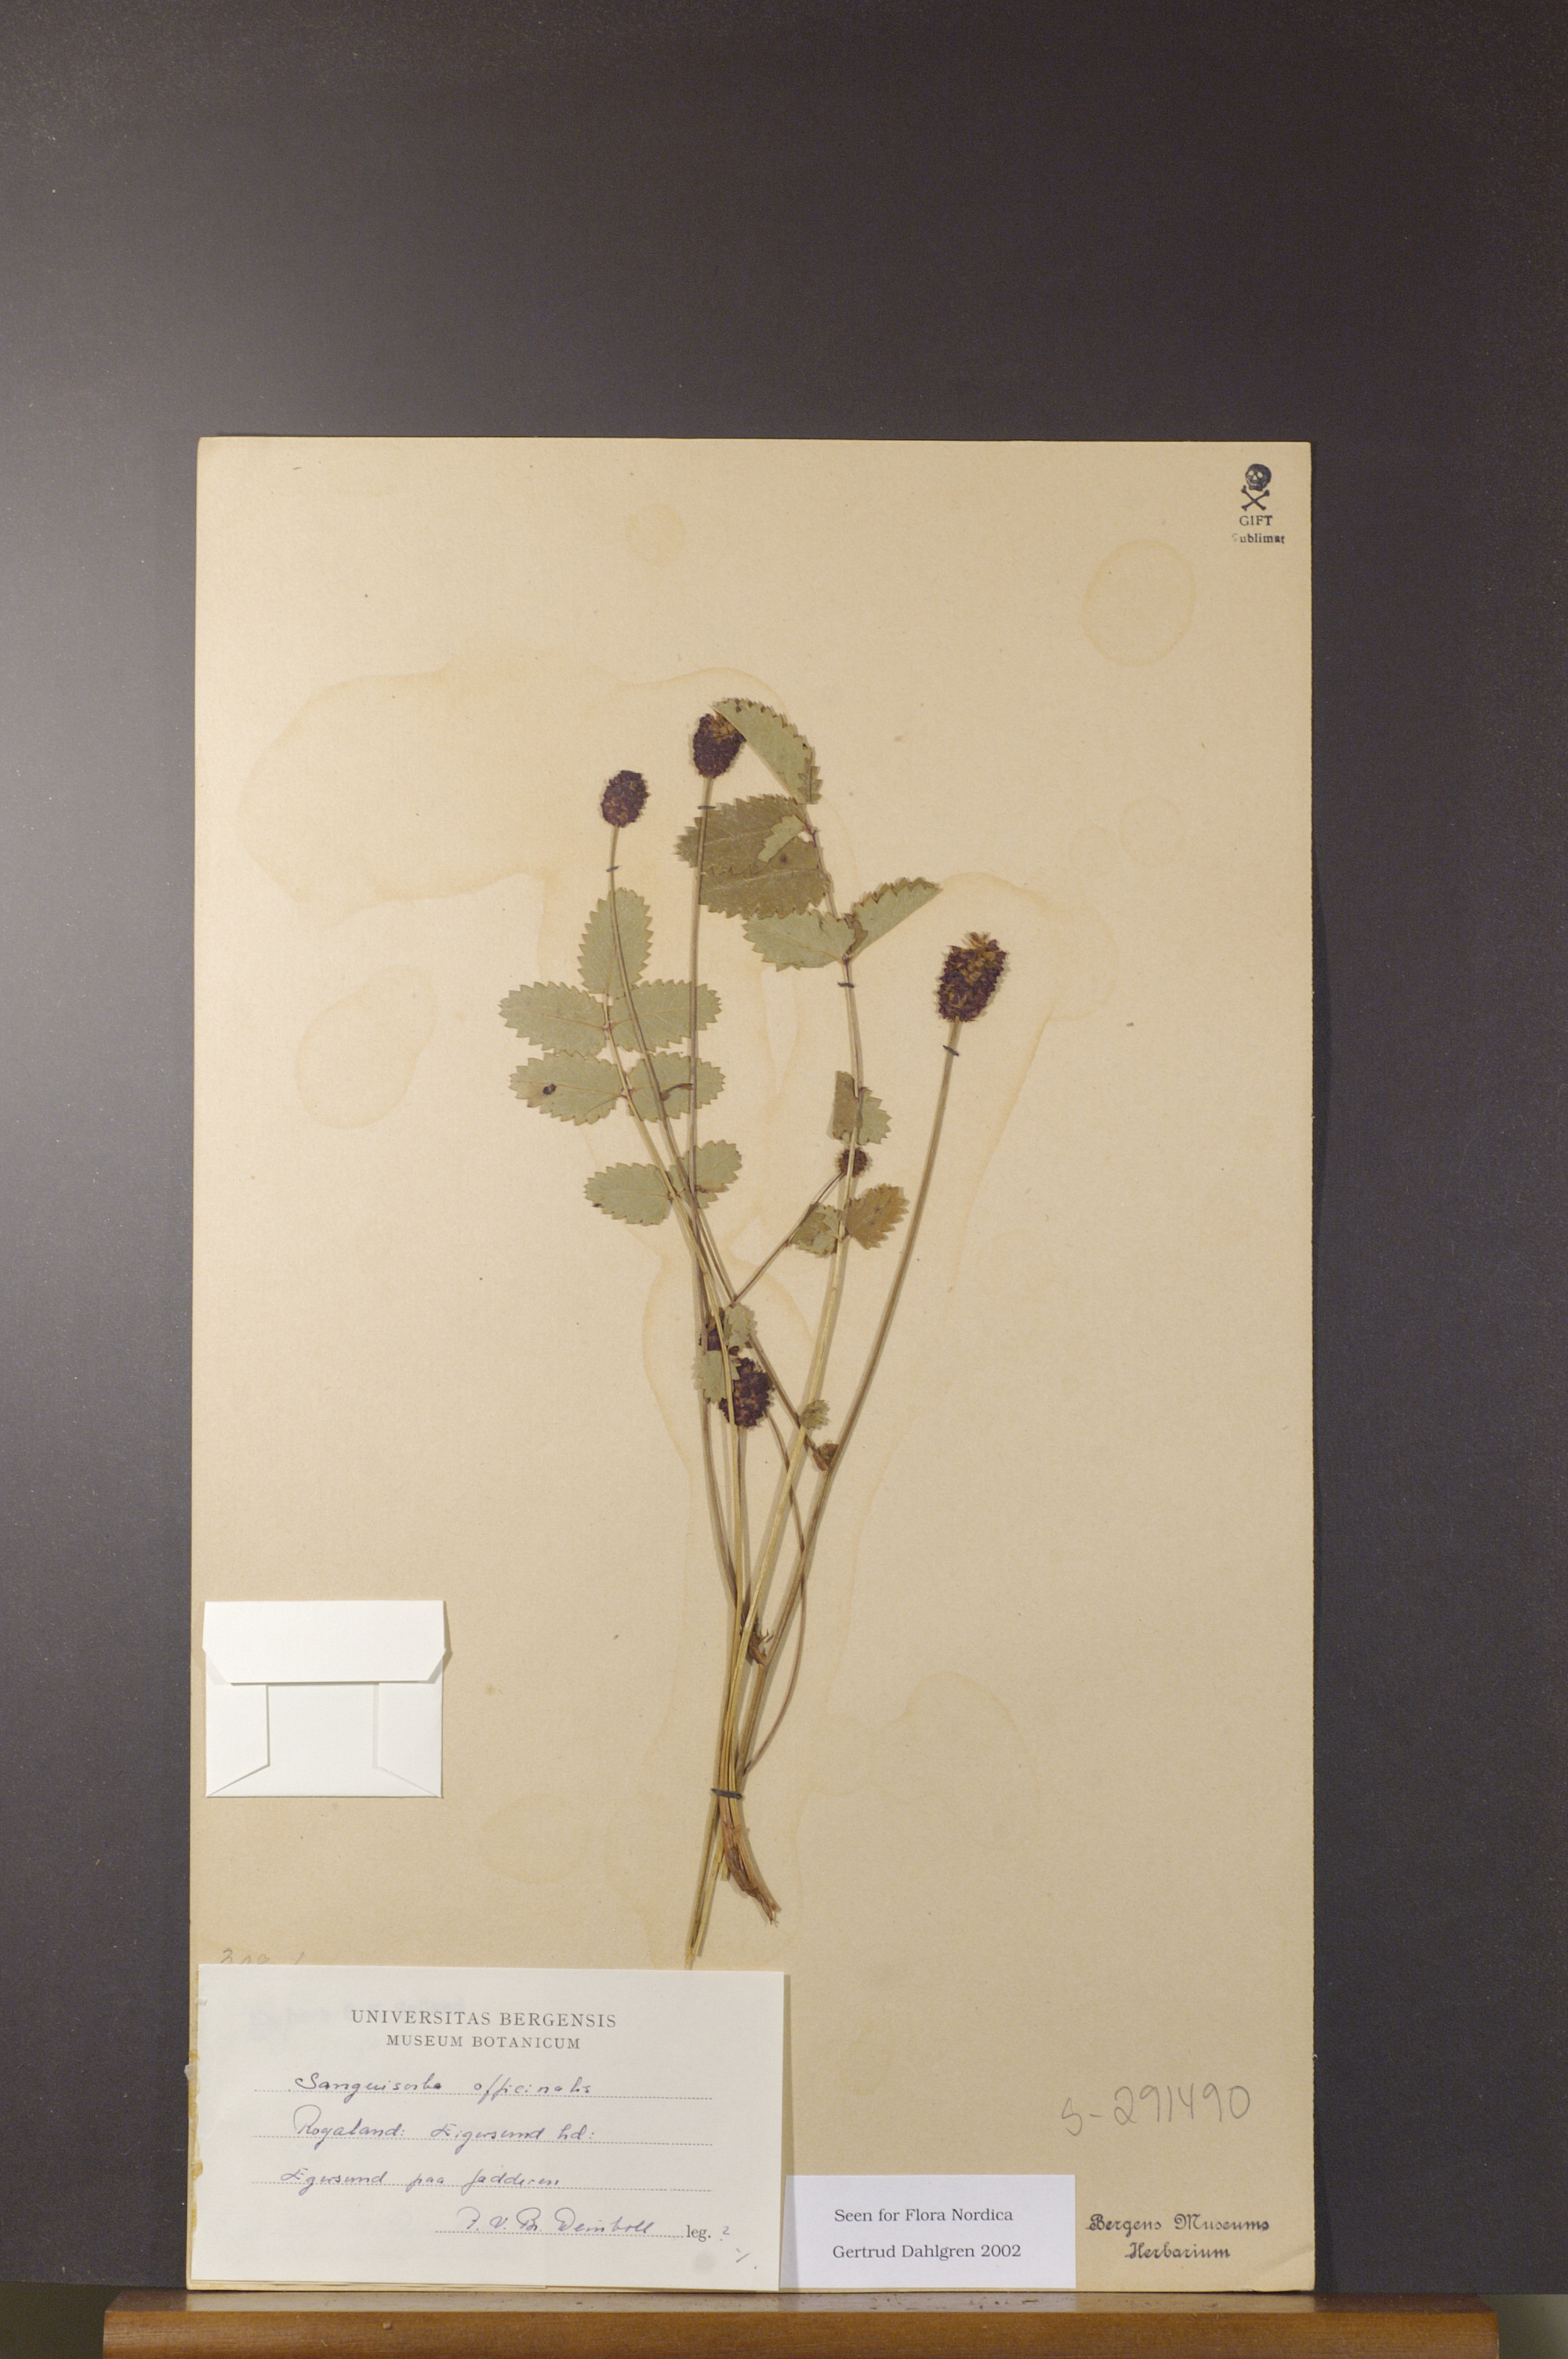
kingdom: Plantae
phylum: Tracheophyta
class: Magnoliopsida
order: Rosales
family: Rosaceae
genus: Sanguisorba
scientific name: Sanguisorba officinalis
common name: Great burnet
